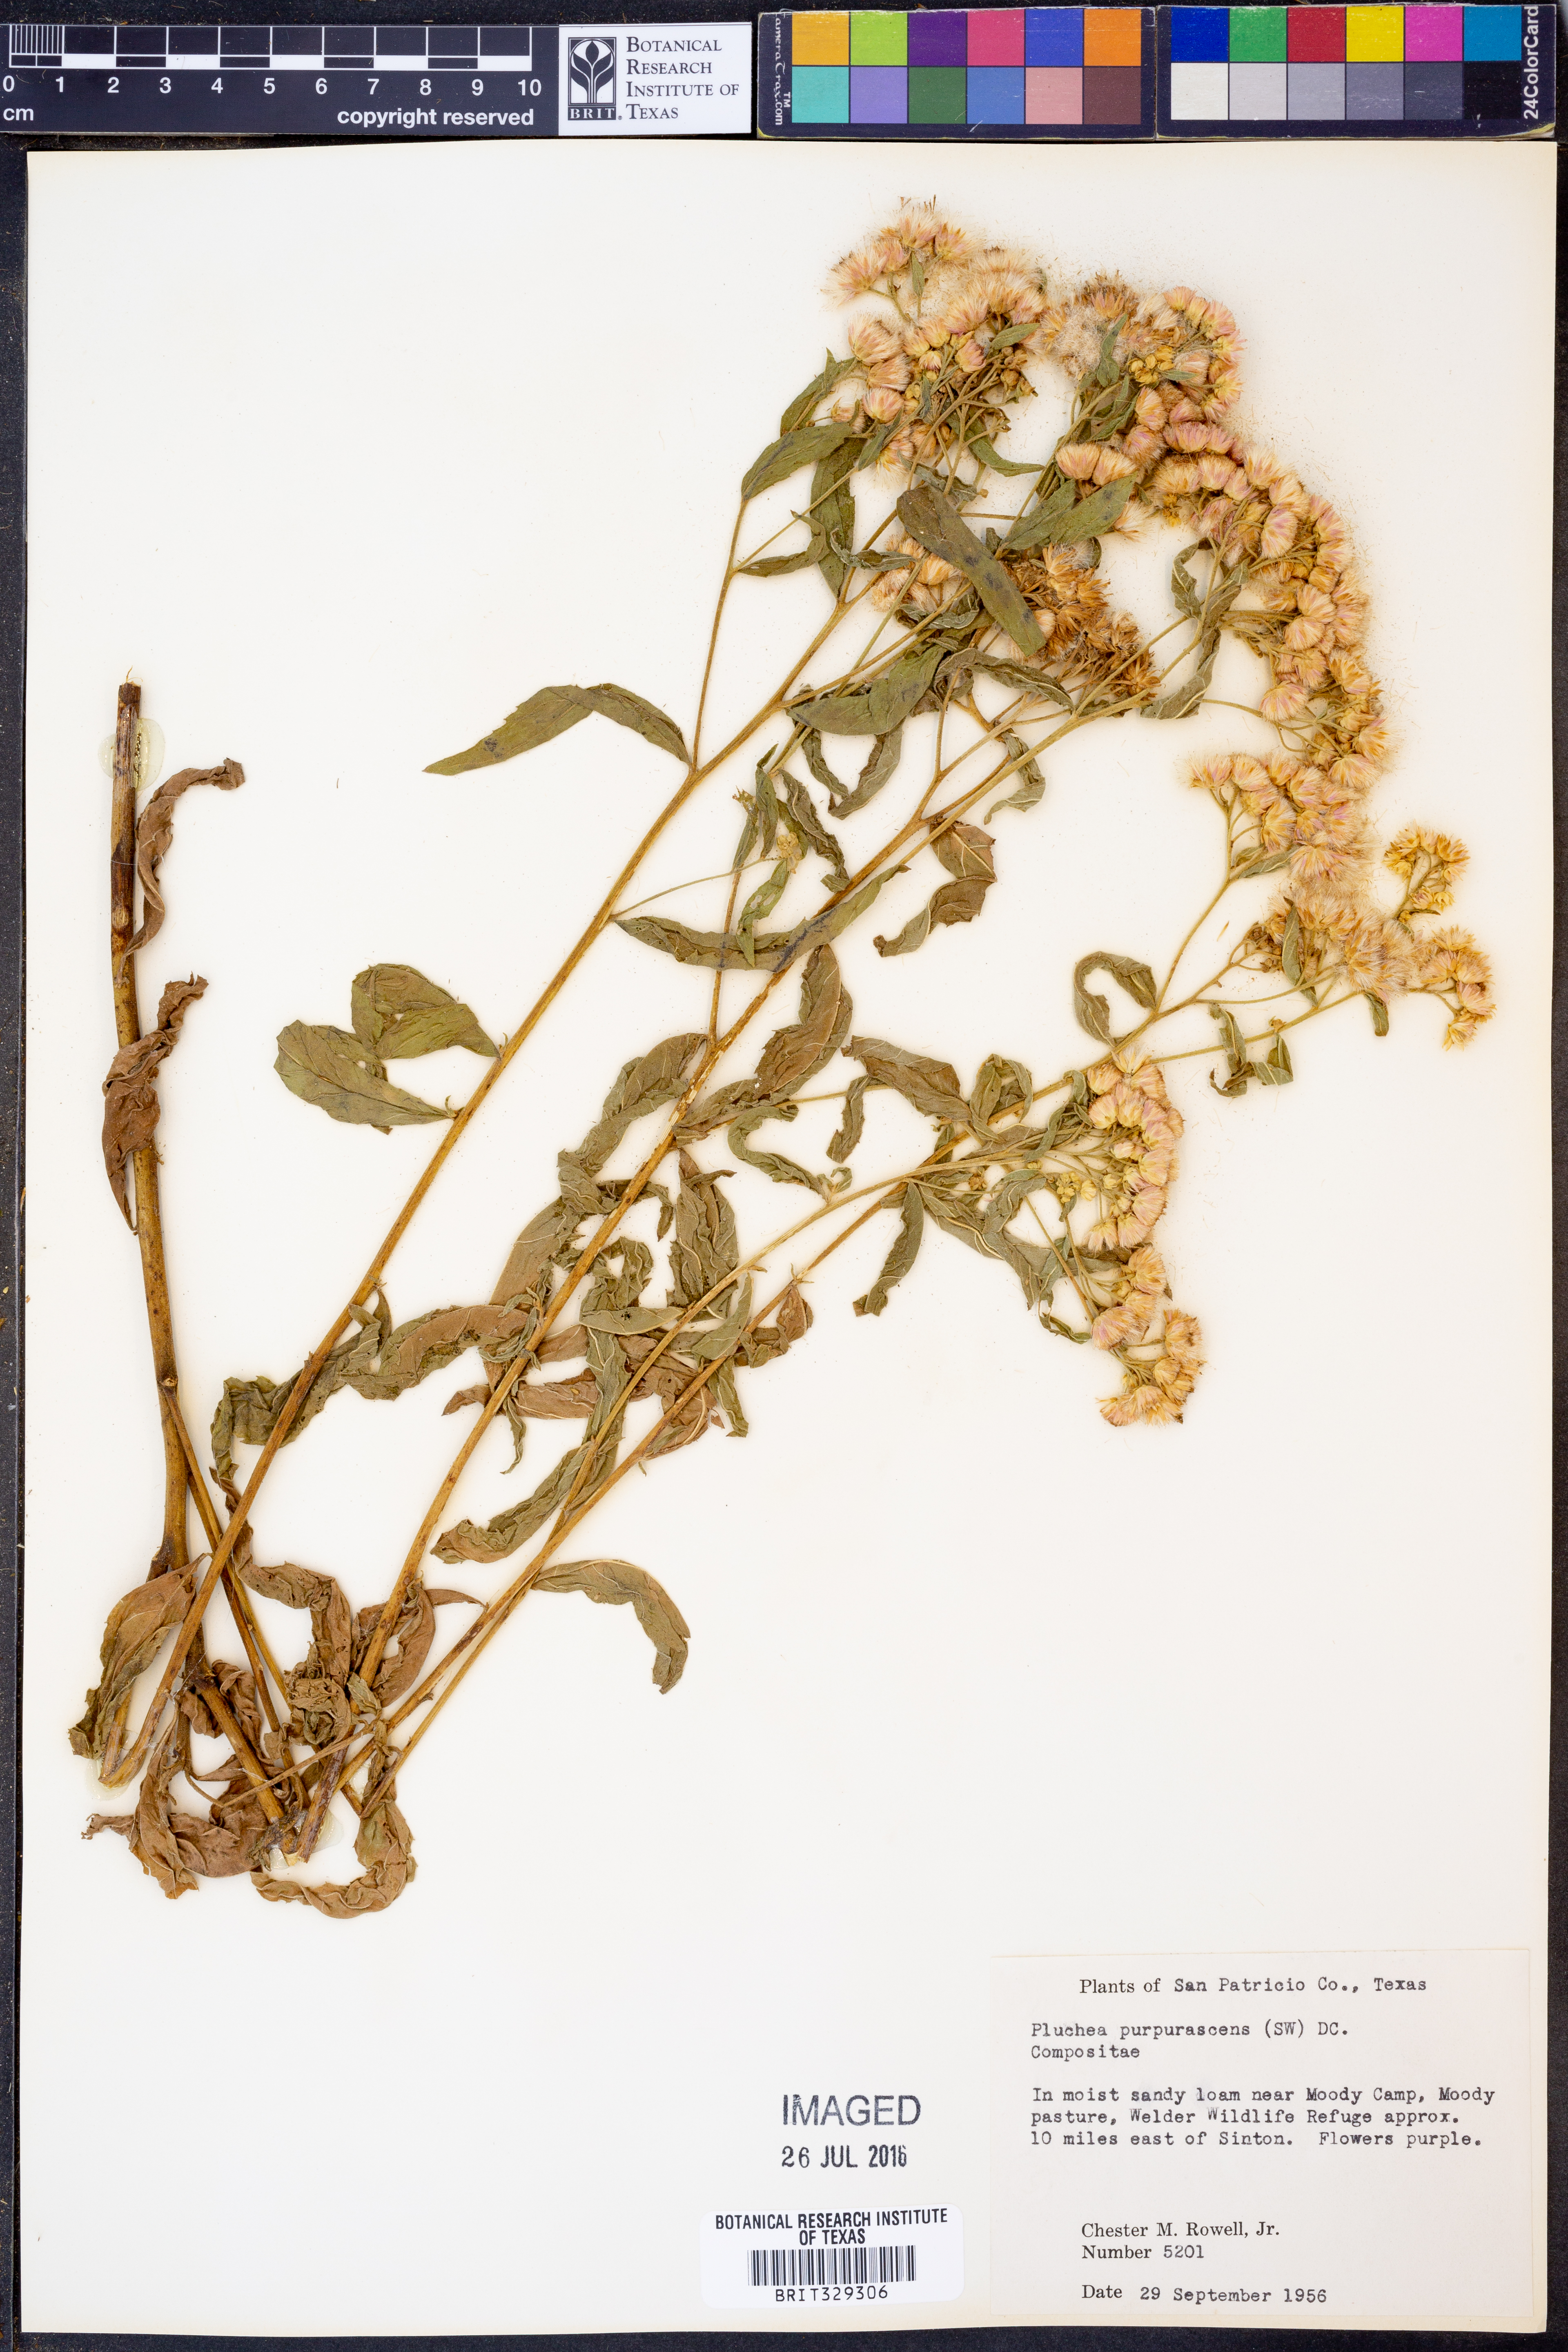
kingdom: Plantae
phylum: Tracheophyta
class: Magnoliopsida
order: Asterales
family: Asteraceae
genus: Pluchea
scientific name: Pluchea odorata
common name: Saltmarsh fleabane
